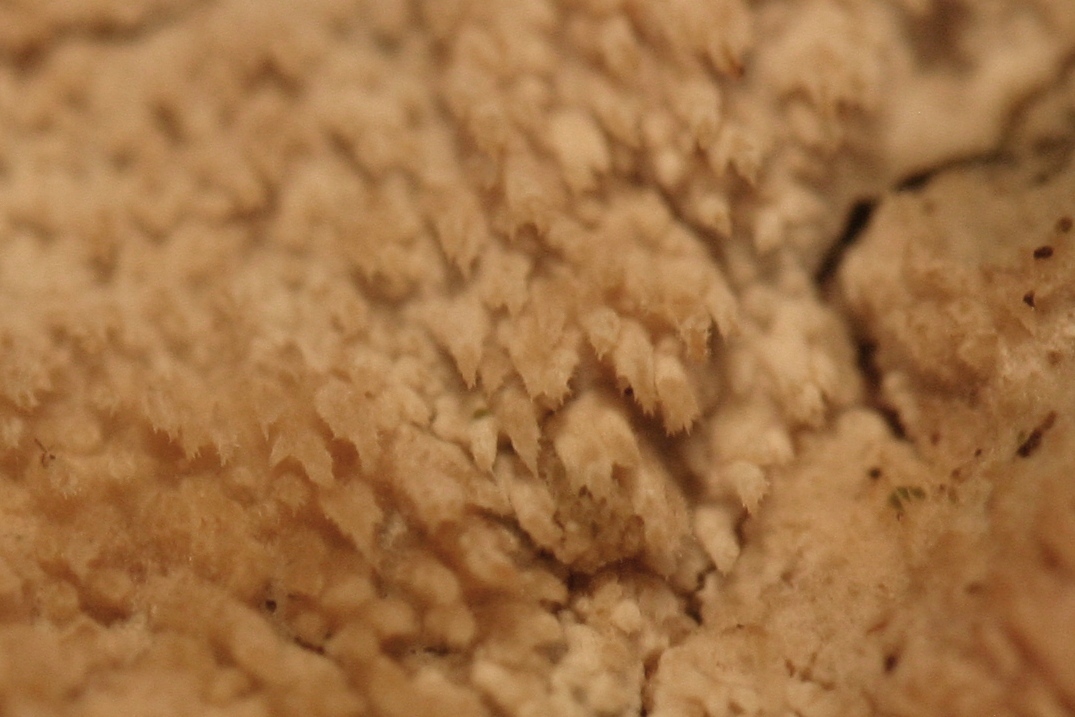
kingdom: Fungi
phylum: Basidiomycota
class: Agaricomycetes
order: Hymenochaetales
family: Hyphodontiaceae
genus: Hyphodontia
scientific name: Hyphodontia barba-jovis
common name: skægget tandsvamp
